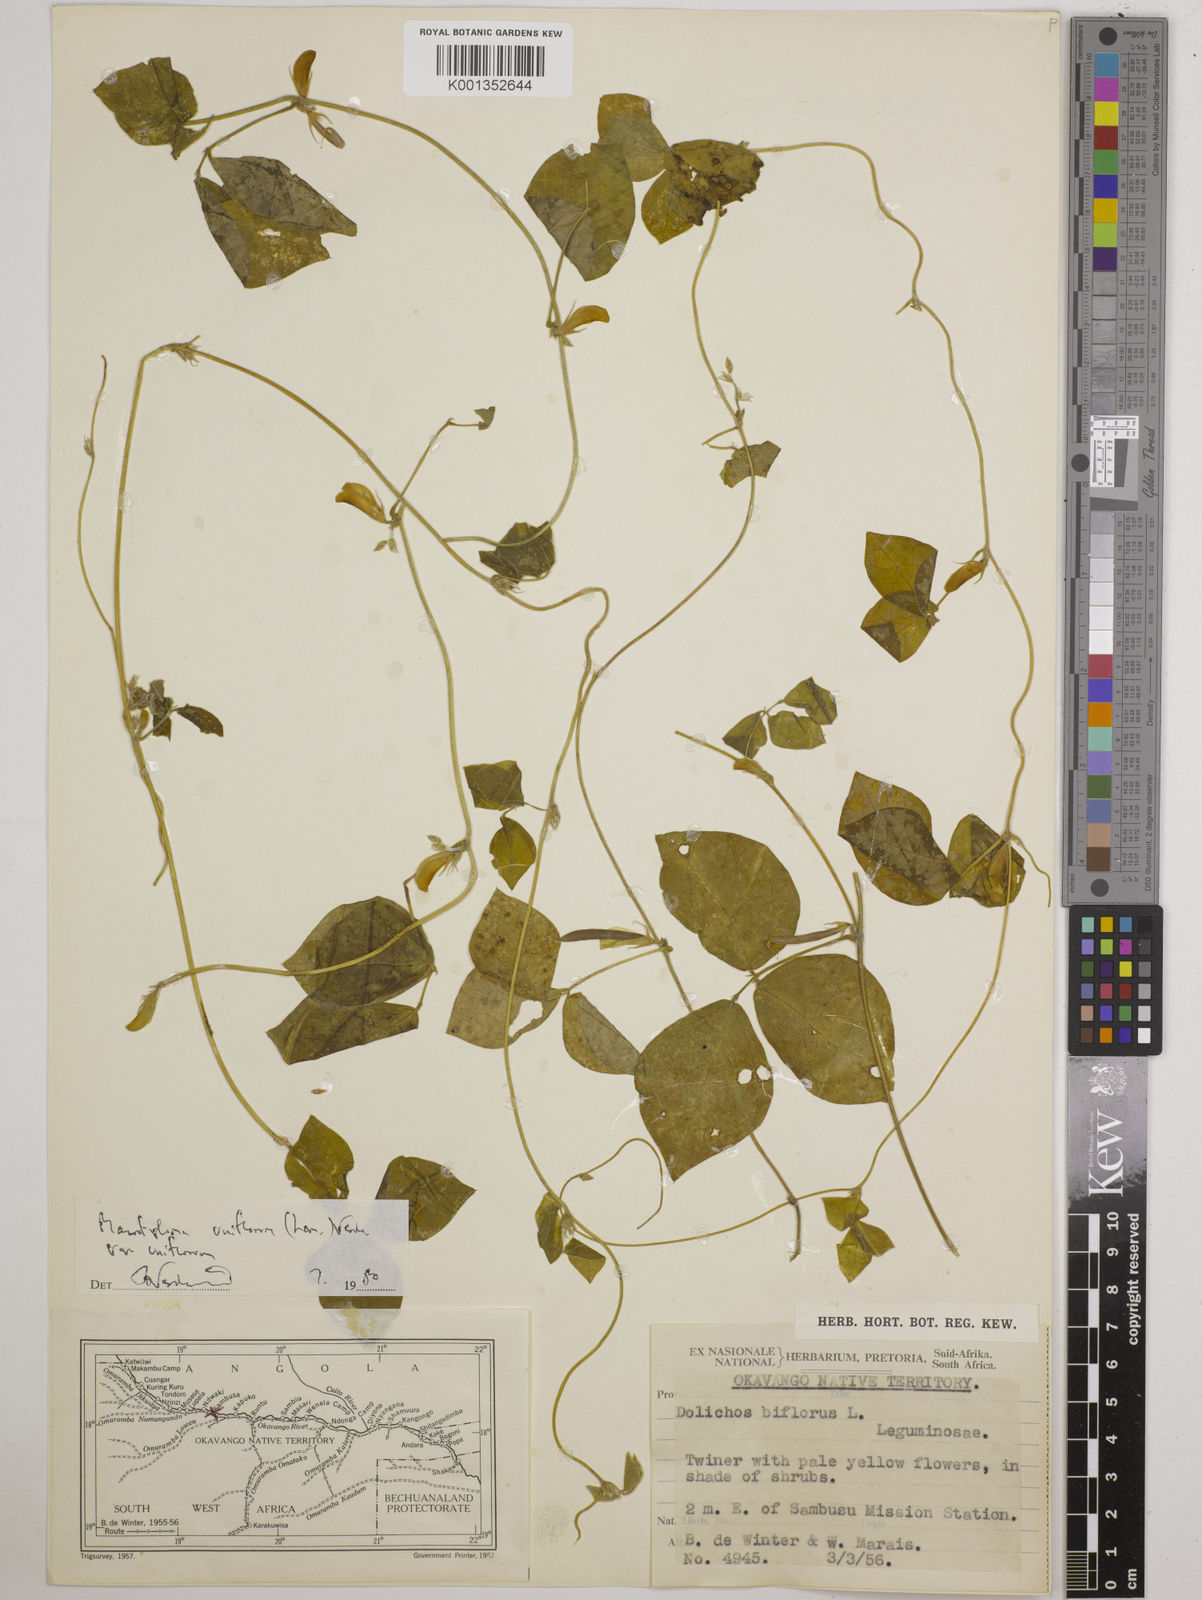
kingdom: Plantae
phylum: Tracheophyta
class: Magnoliopsida
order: Fabales
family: Fabaceae
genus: Macrotyloma
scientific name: Macrotyloma uniflorum
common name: Horse gram
